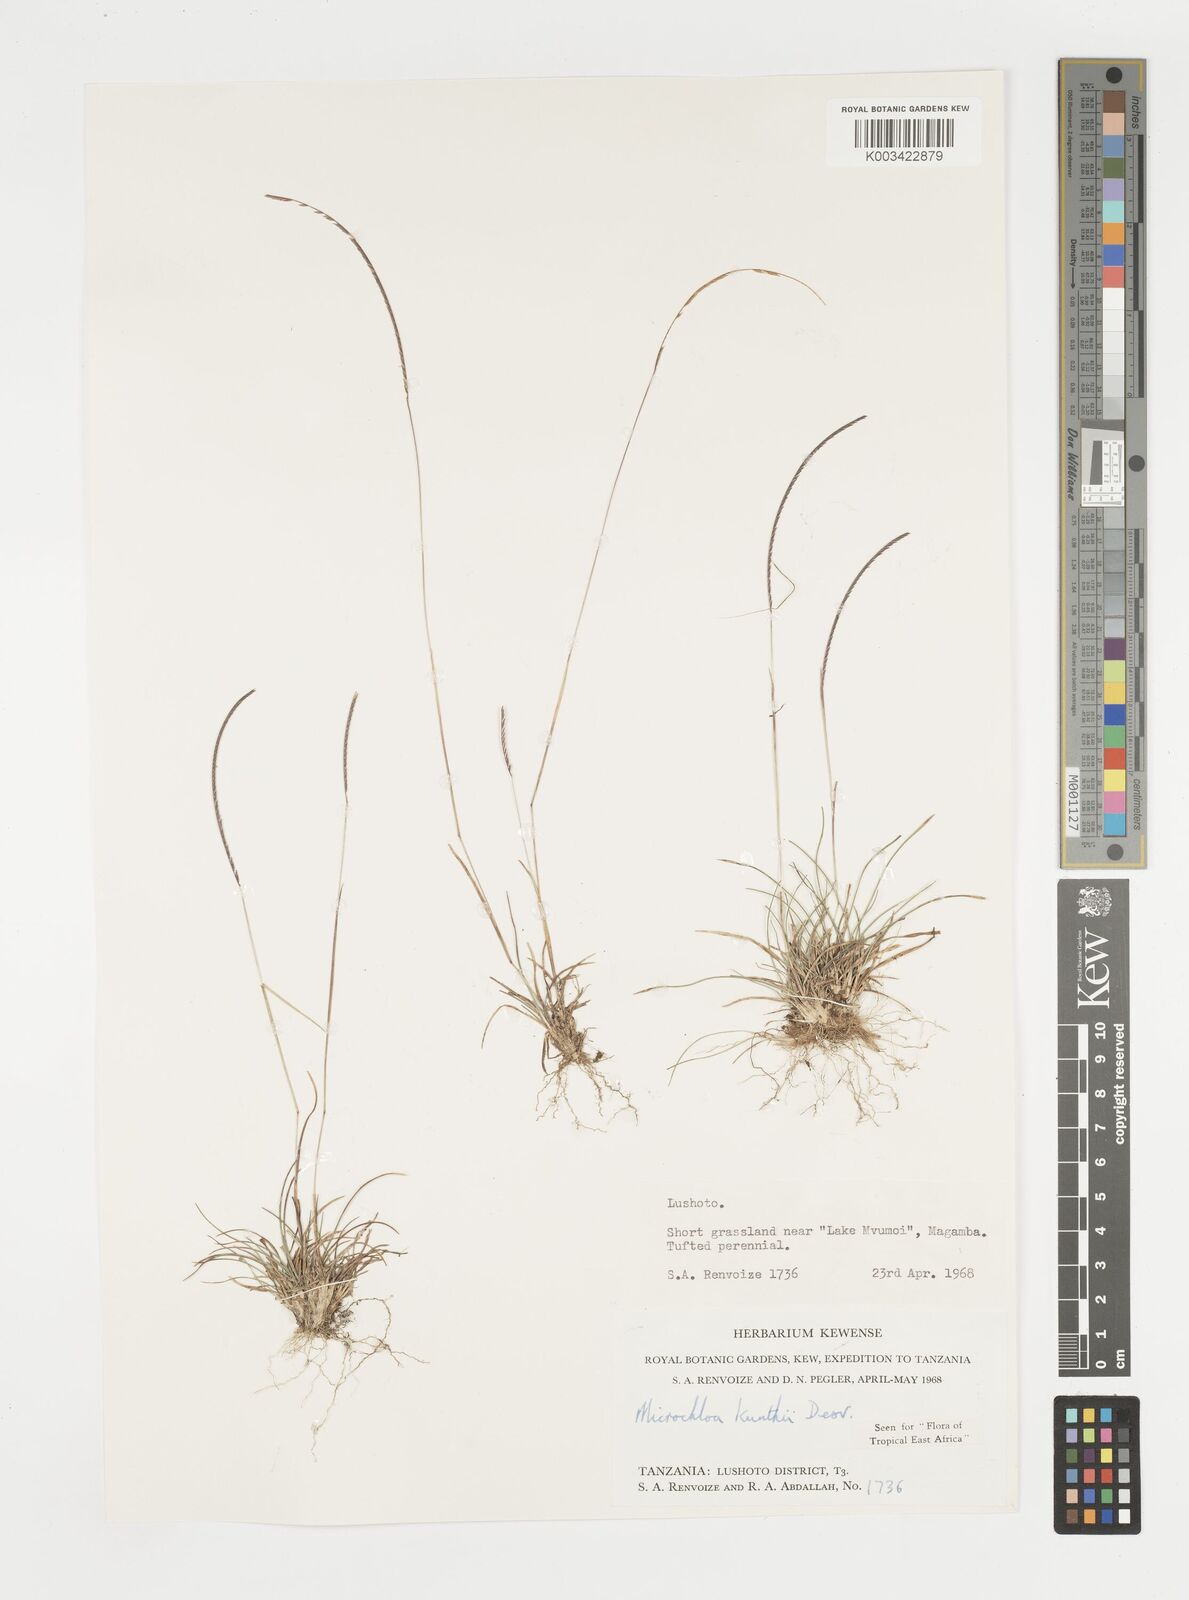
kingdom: Plantae
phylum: Tracheophyta
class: Liliopsida
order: Poales
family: Poaceae
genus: Microchloa
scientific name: Microchloa kunthii
